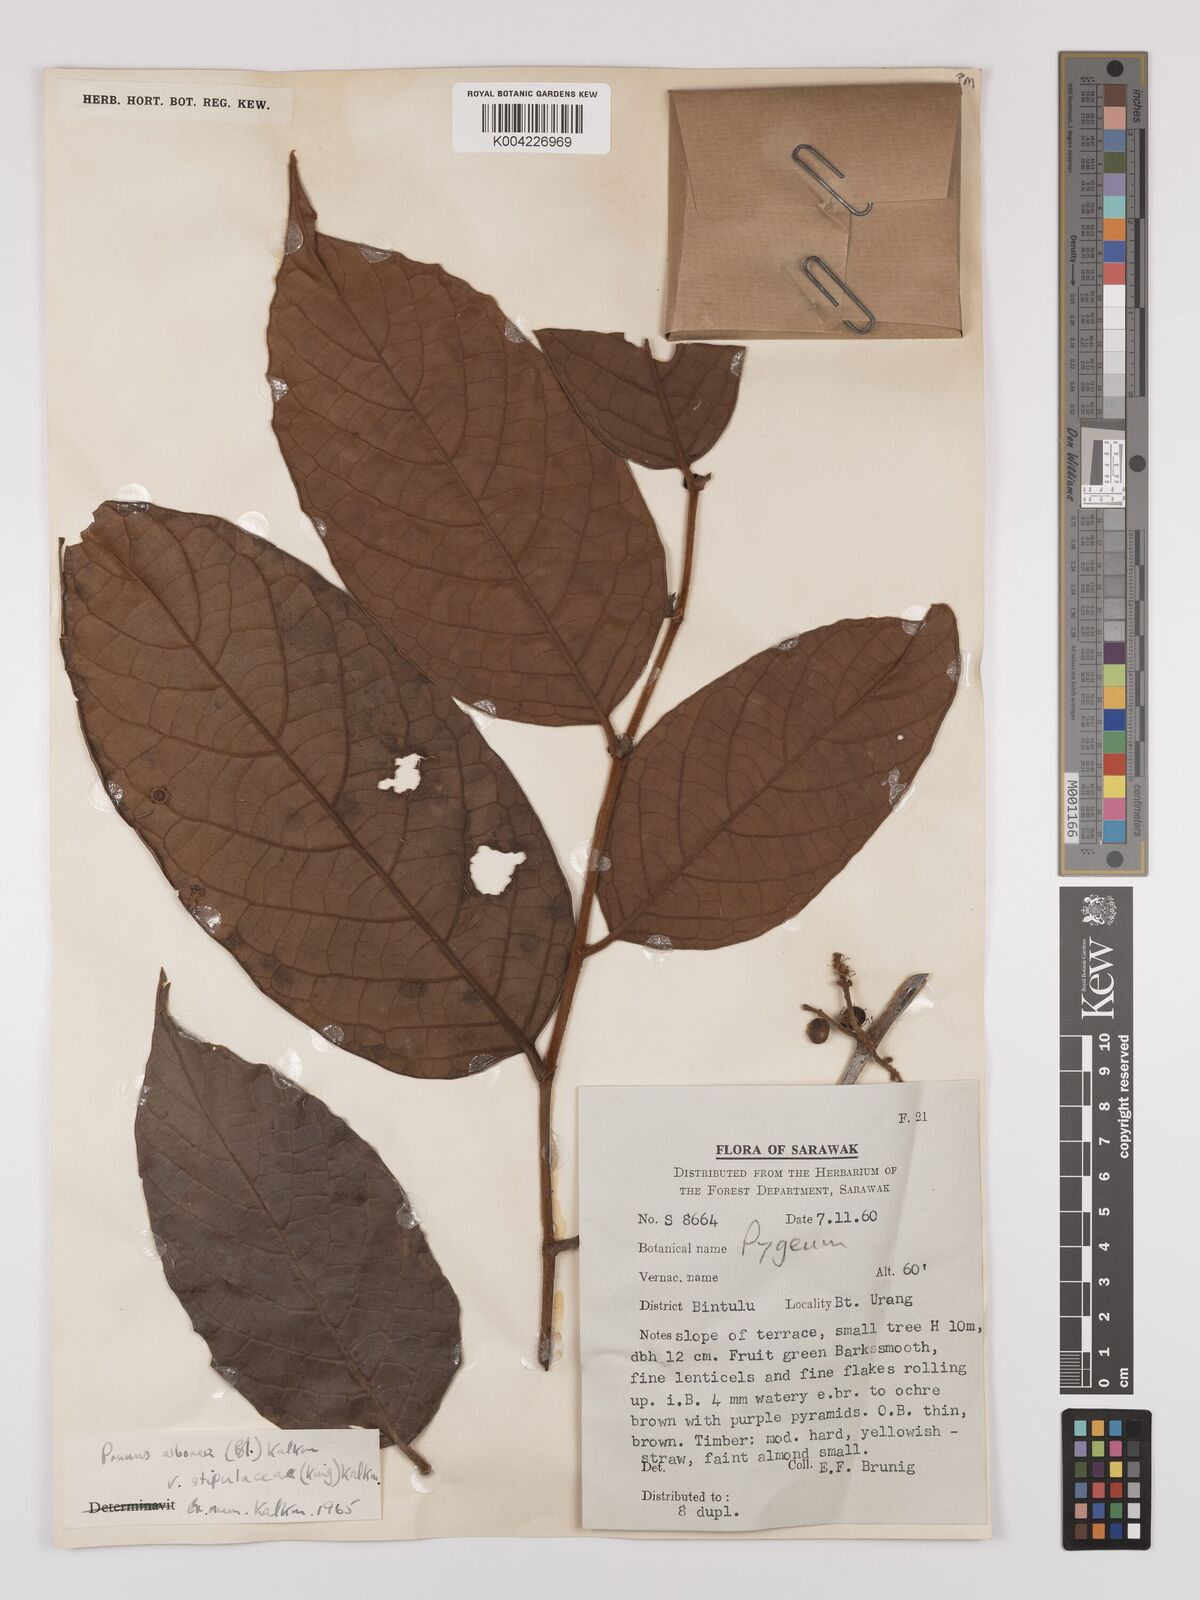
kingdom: Plantae
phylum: Tracheophyta
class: Magnoliopsida
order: Rosales
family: Rosaceae
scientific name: Rosaceae
